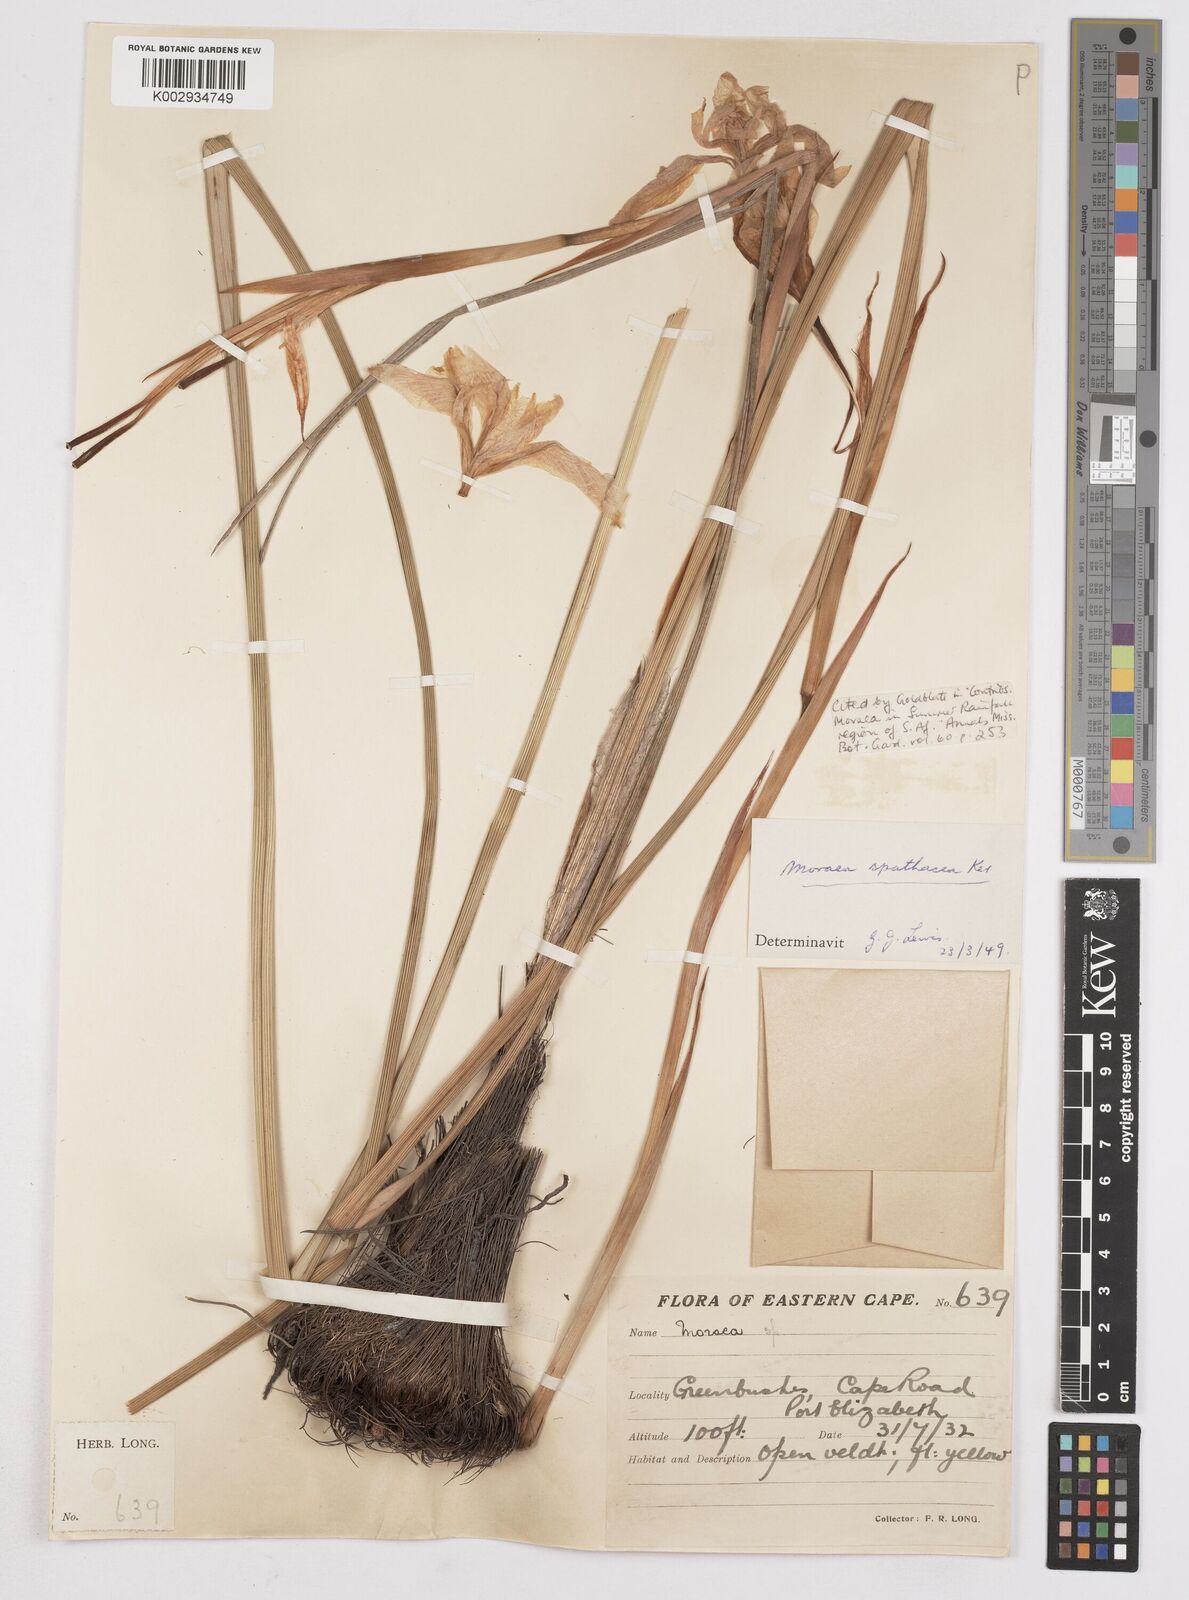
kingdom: Plantae
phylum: Tracheophyta
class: Liliopsida
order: Asparagales
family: Iridaceae
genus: Moraea
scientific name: Moraea spathulata
